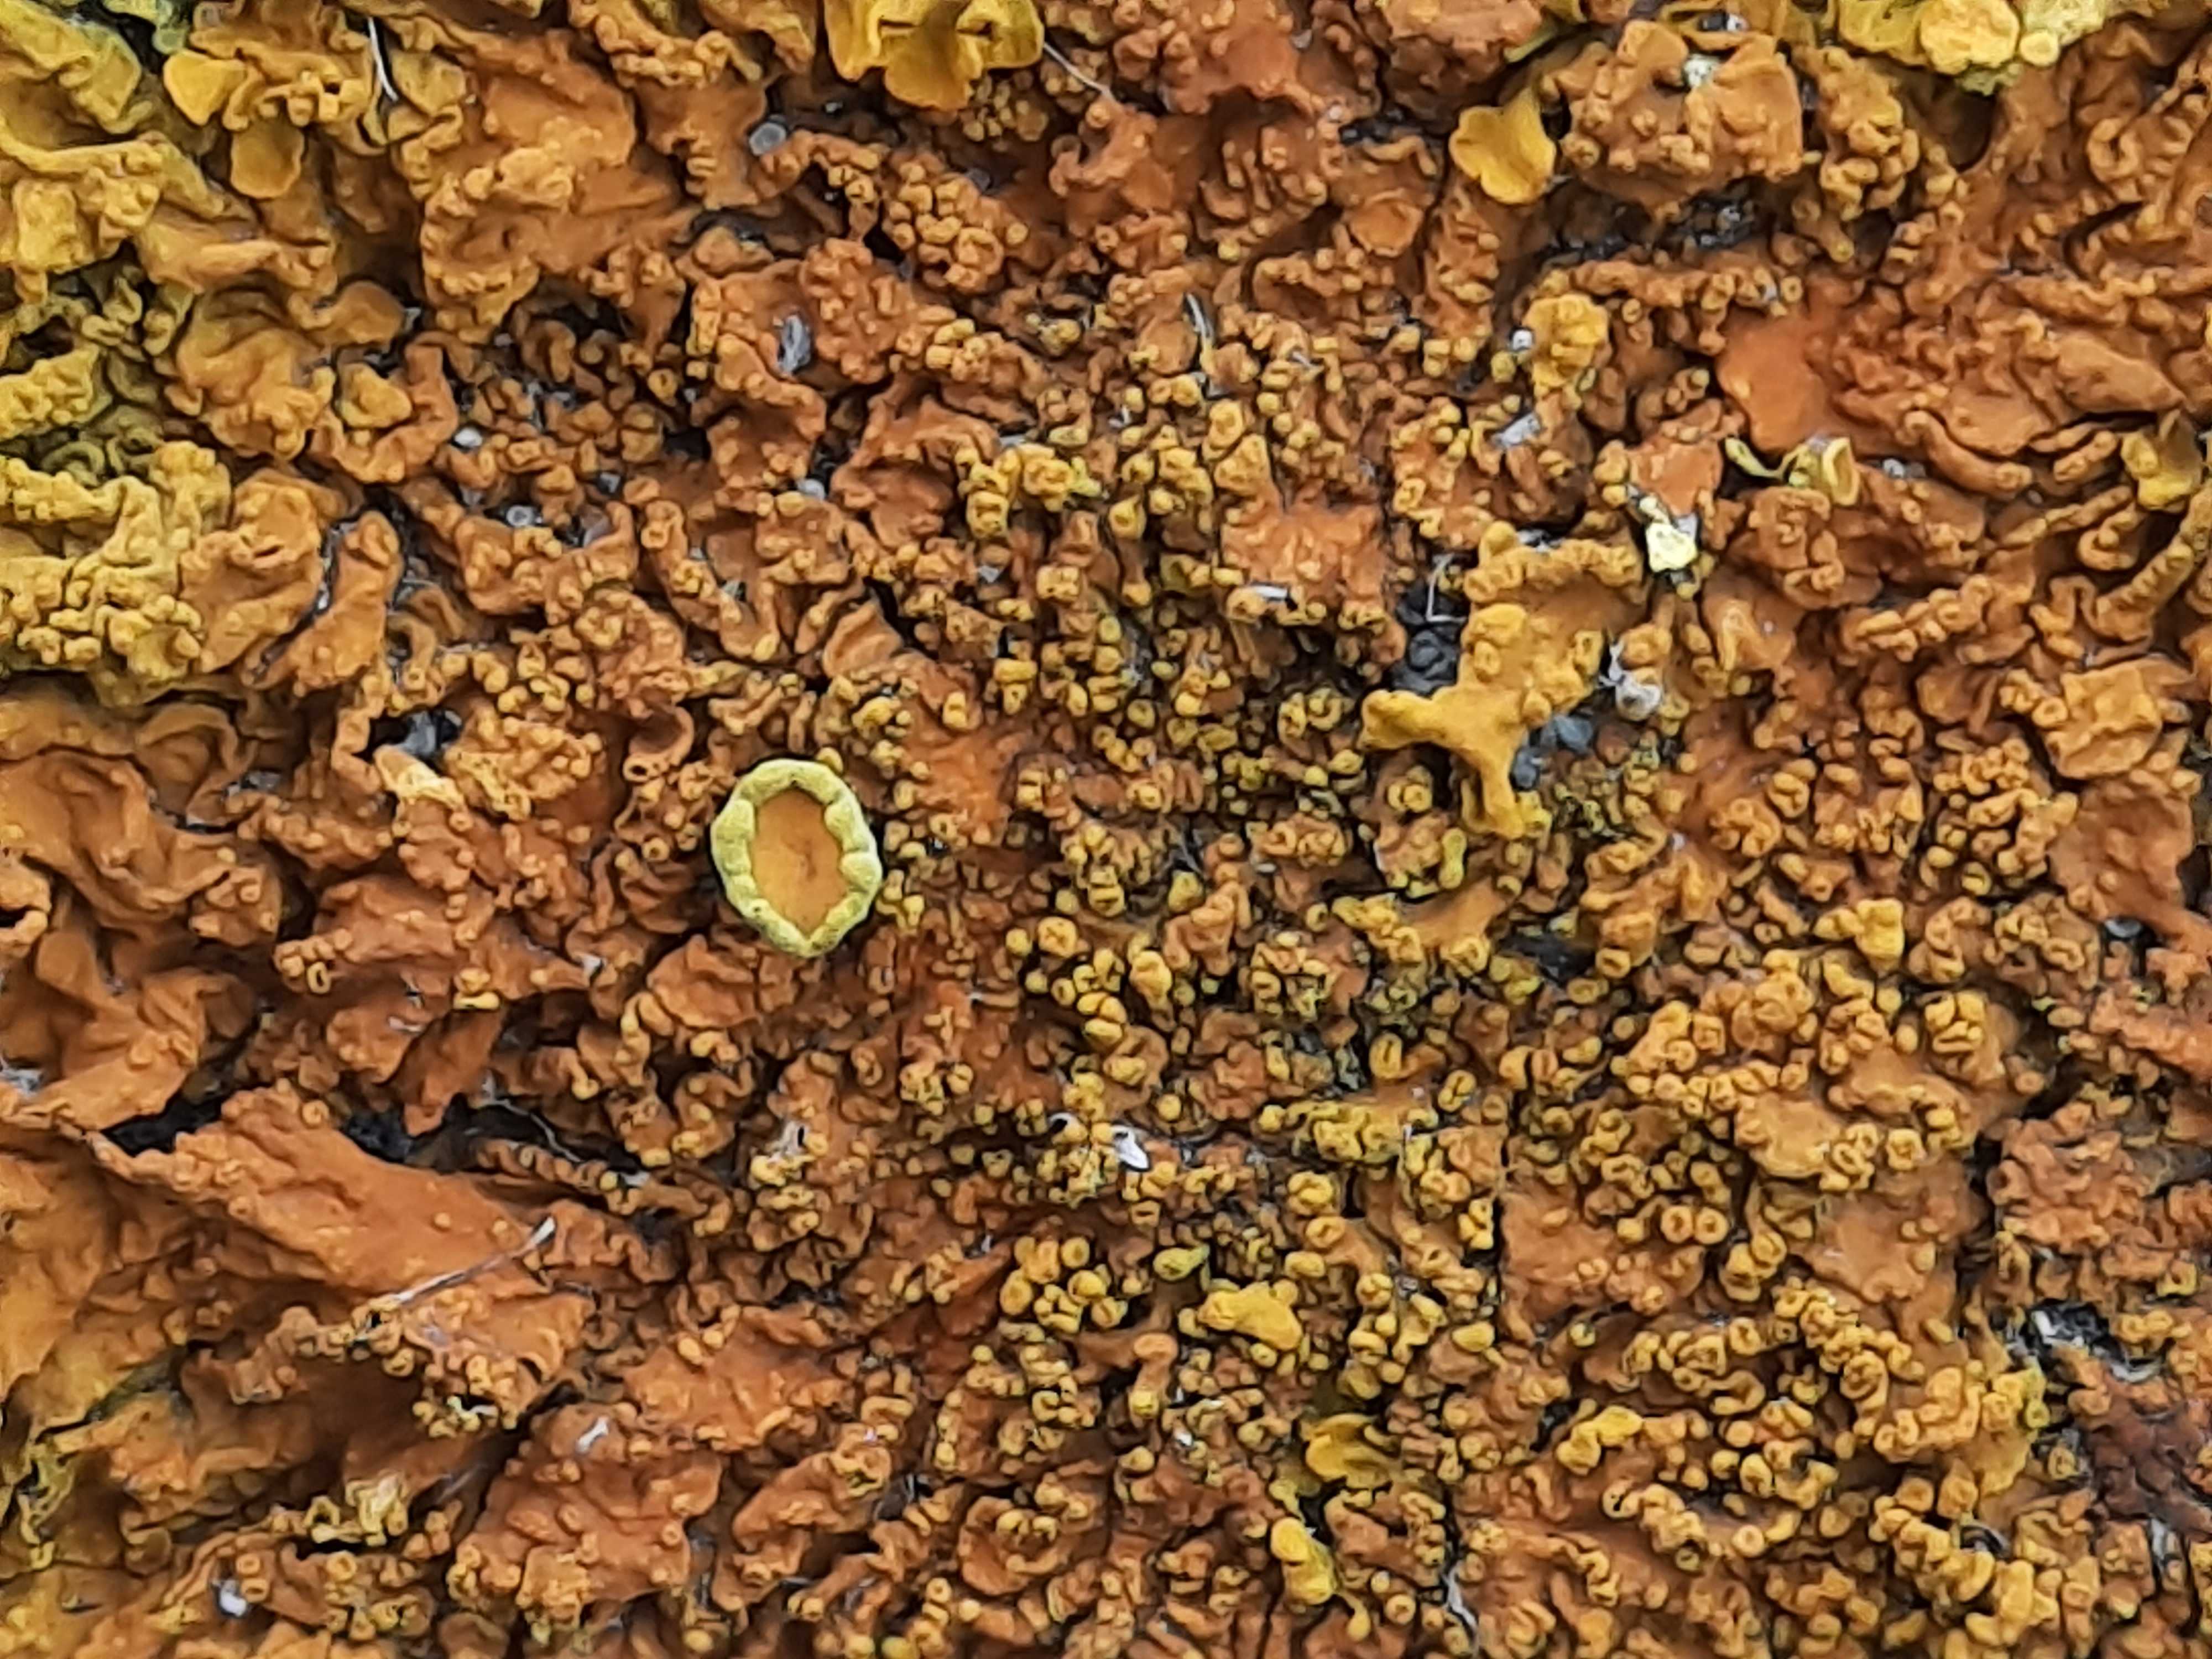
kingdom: Fungi
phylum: Ascomycota
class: Lecanoromycetes
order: Teloschistales
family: Teloschistaceae
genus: Xanthoria
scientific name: Xanthoria calcicola
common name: vortet væggelav
